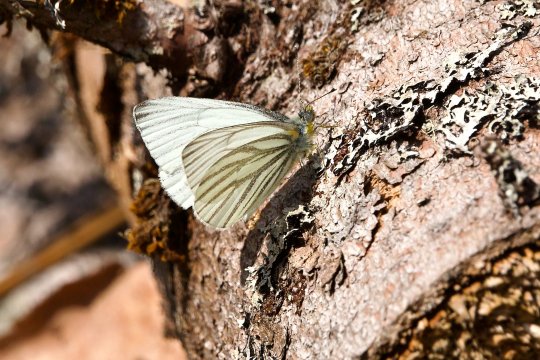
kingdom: Animalia
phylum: Arthropoda
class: Insecta
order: Lepidoptera
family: Pieridae
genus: Pieris
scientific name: Pieris oleracea
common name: Mustard White
